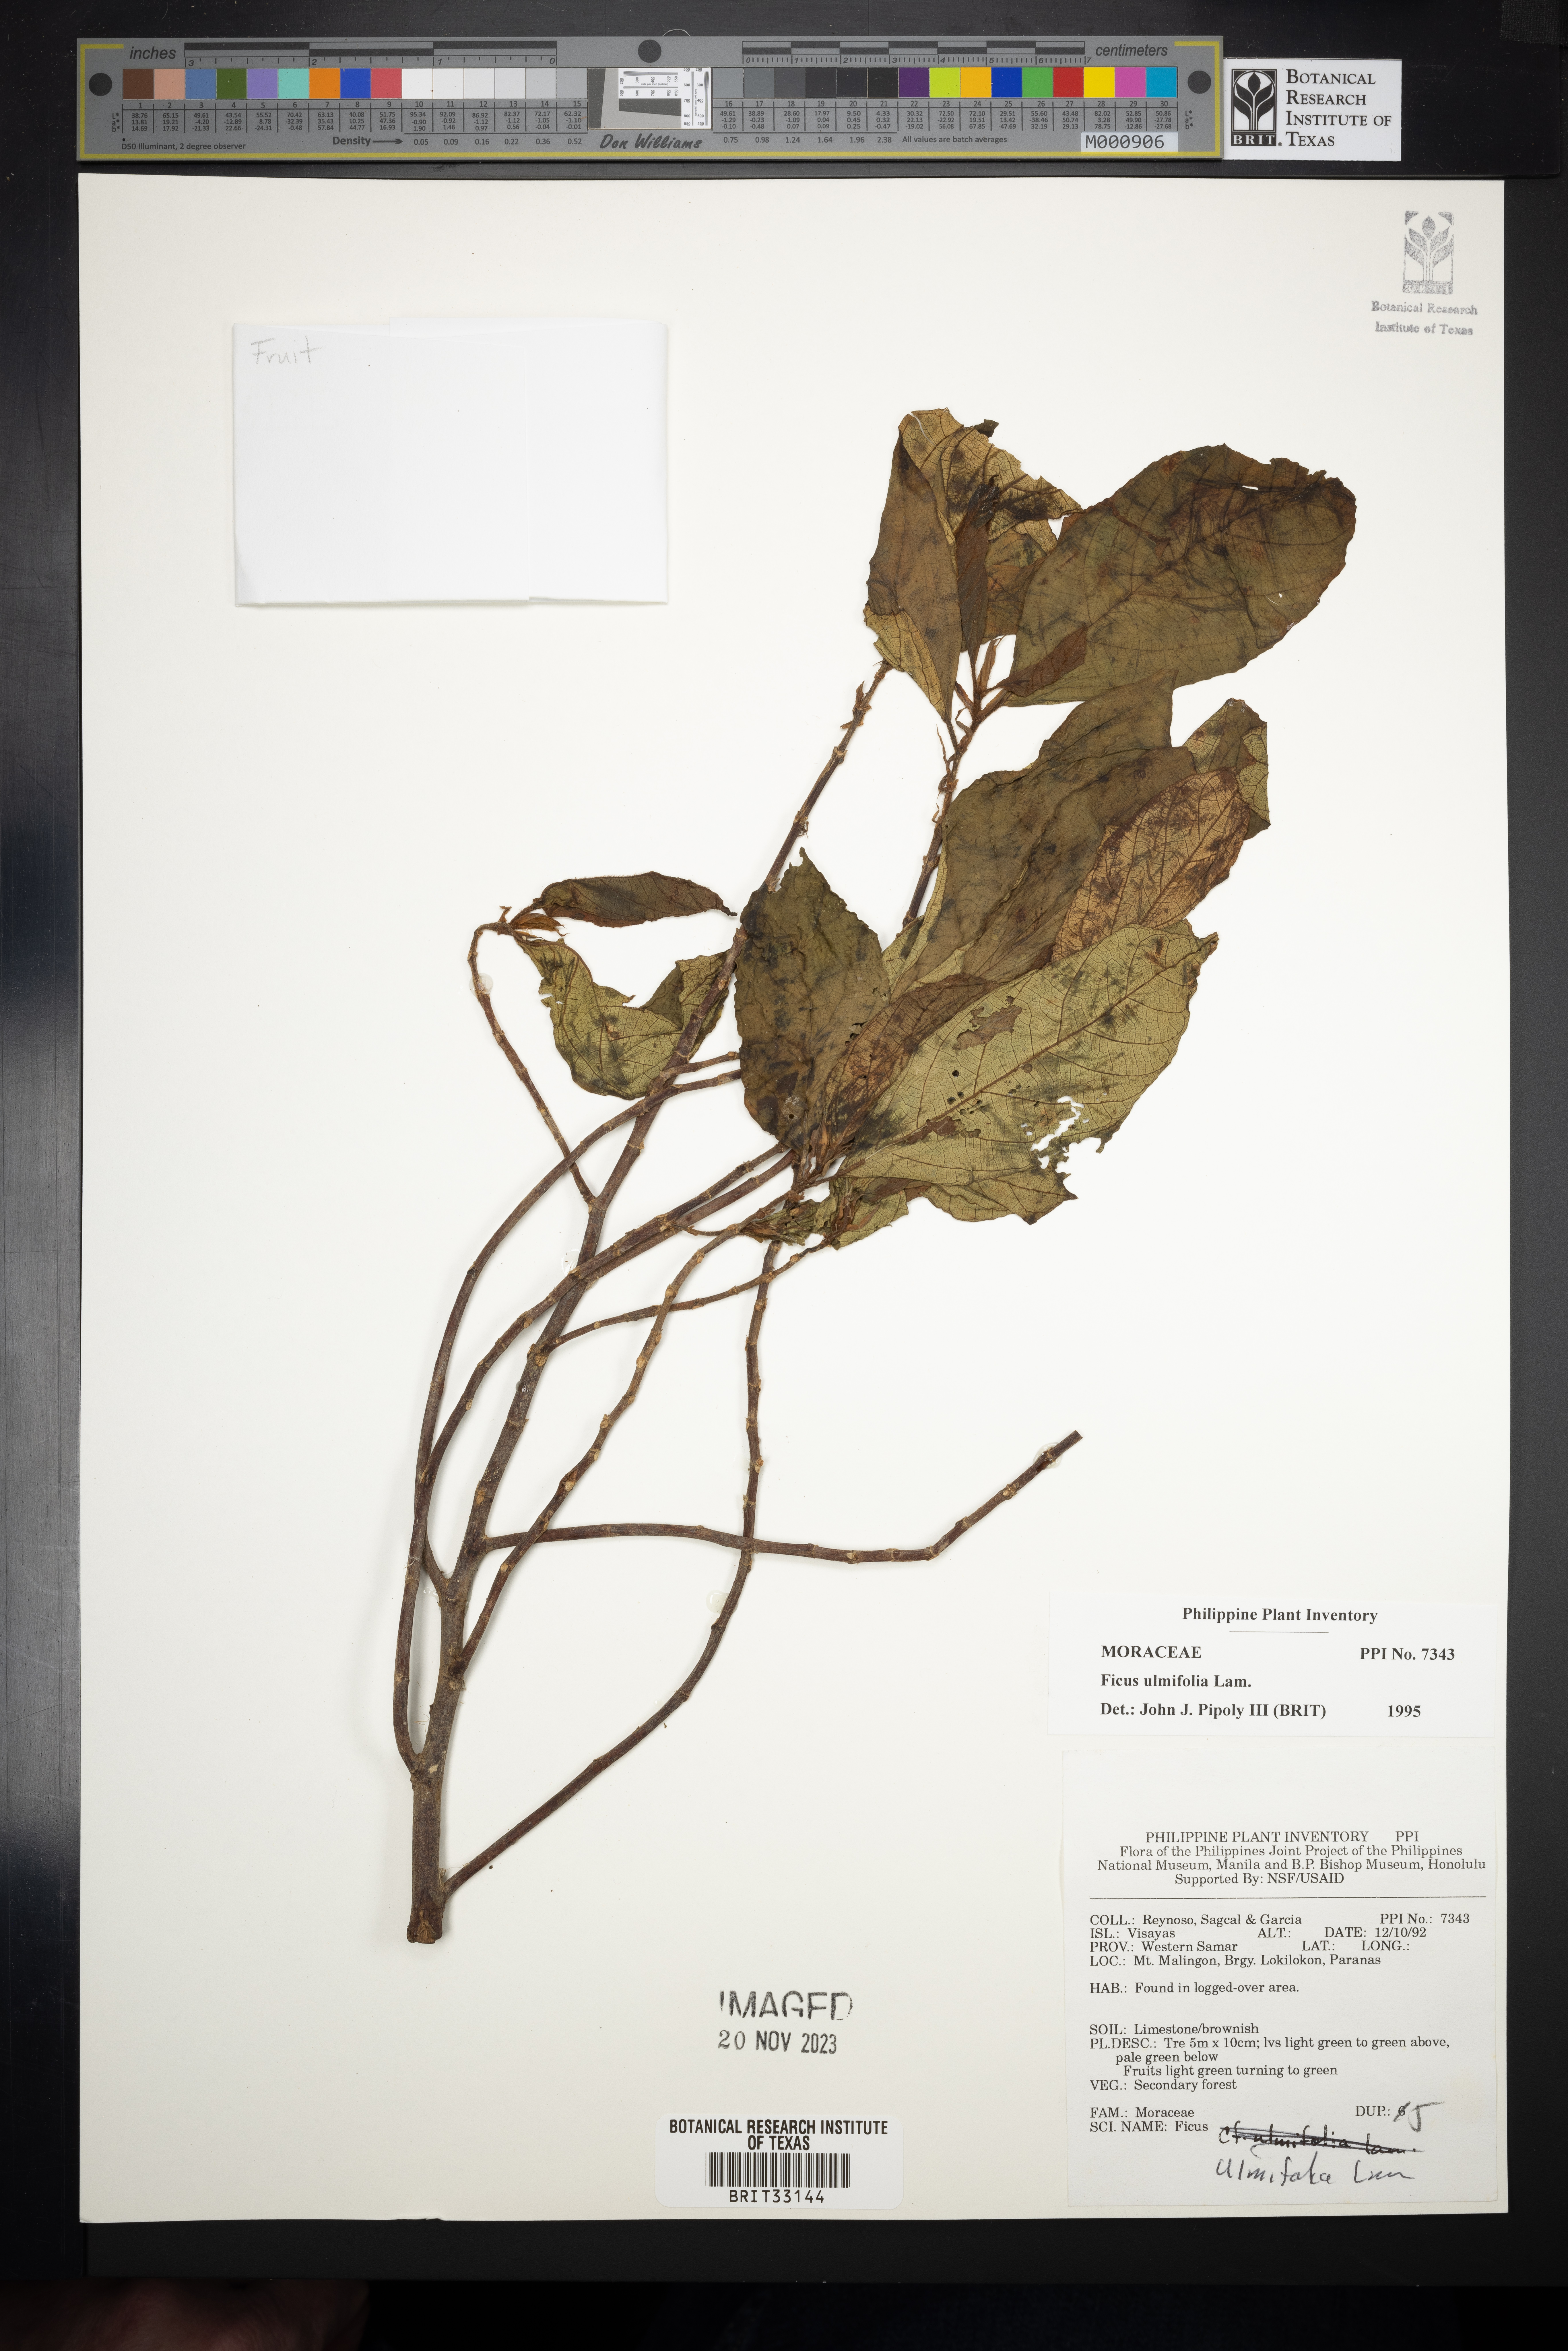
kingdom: Plantae
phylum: Tracheophyta
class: Magnoliopsida
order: Rosales
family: Moraceae
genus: Ficus
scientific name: Ficus ulmifolia
